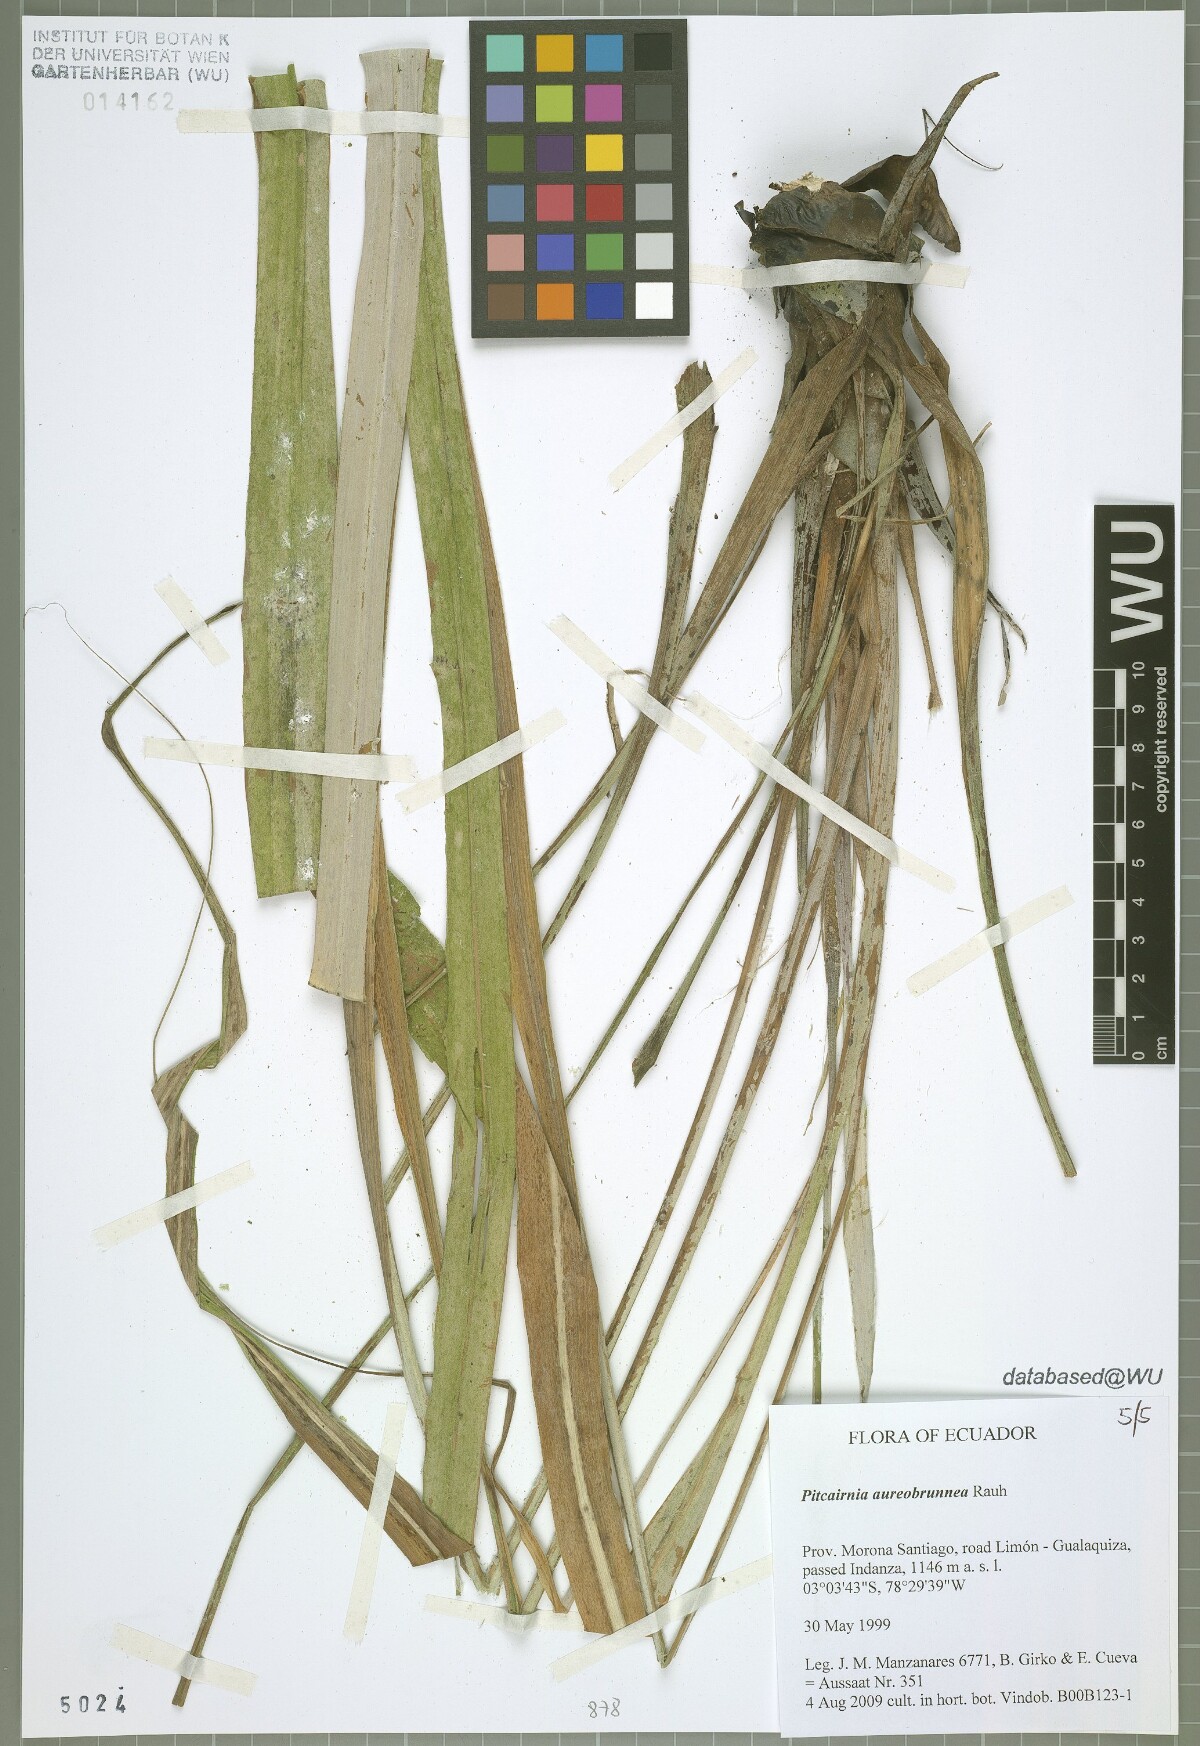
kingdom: Plantae
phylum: Tracheophyta
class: Liliopsida
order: Poales
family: Bromeliaceae
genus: Pitcairnia
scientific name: Pitcairnia aureobrunnea
